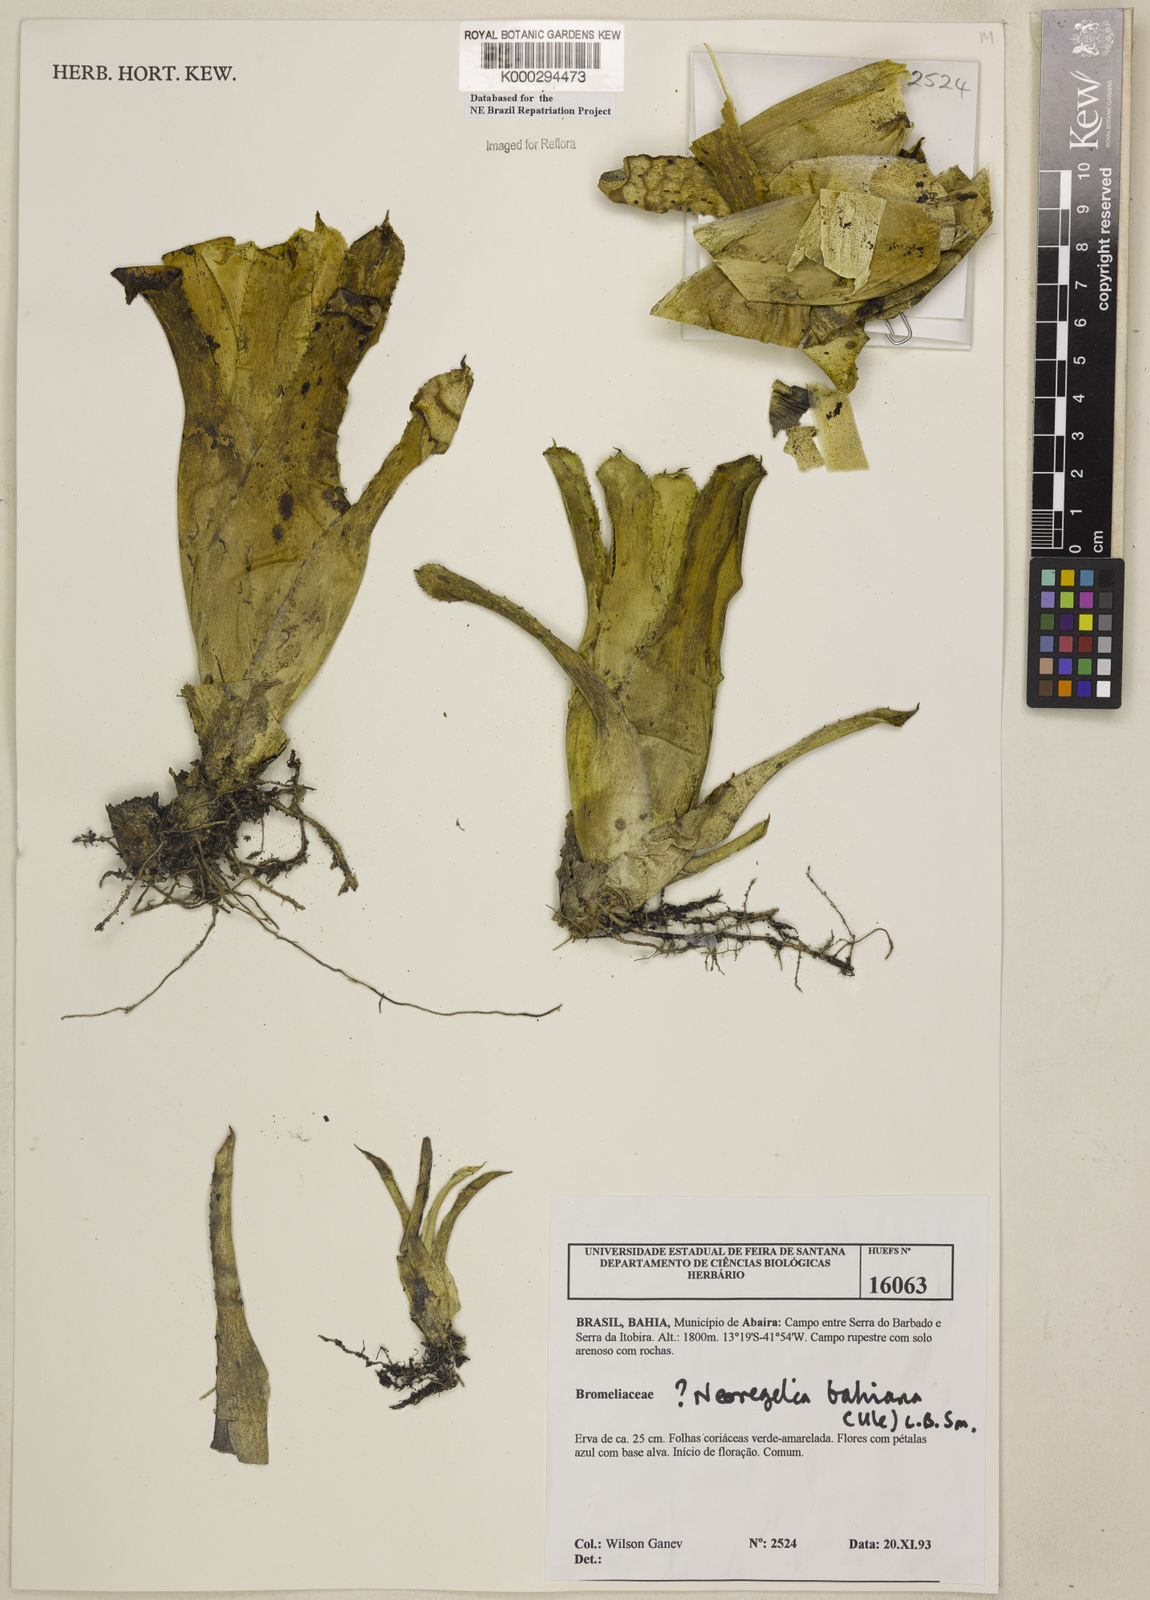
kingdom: Plantae
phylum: Tracheophyta
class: Liliopsida
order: Poales
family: Bromeliaceae
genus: Neoregelia
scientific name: Neoregelia bahiana
